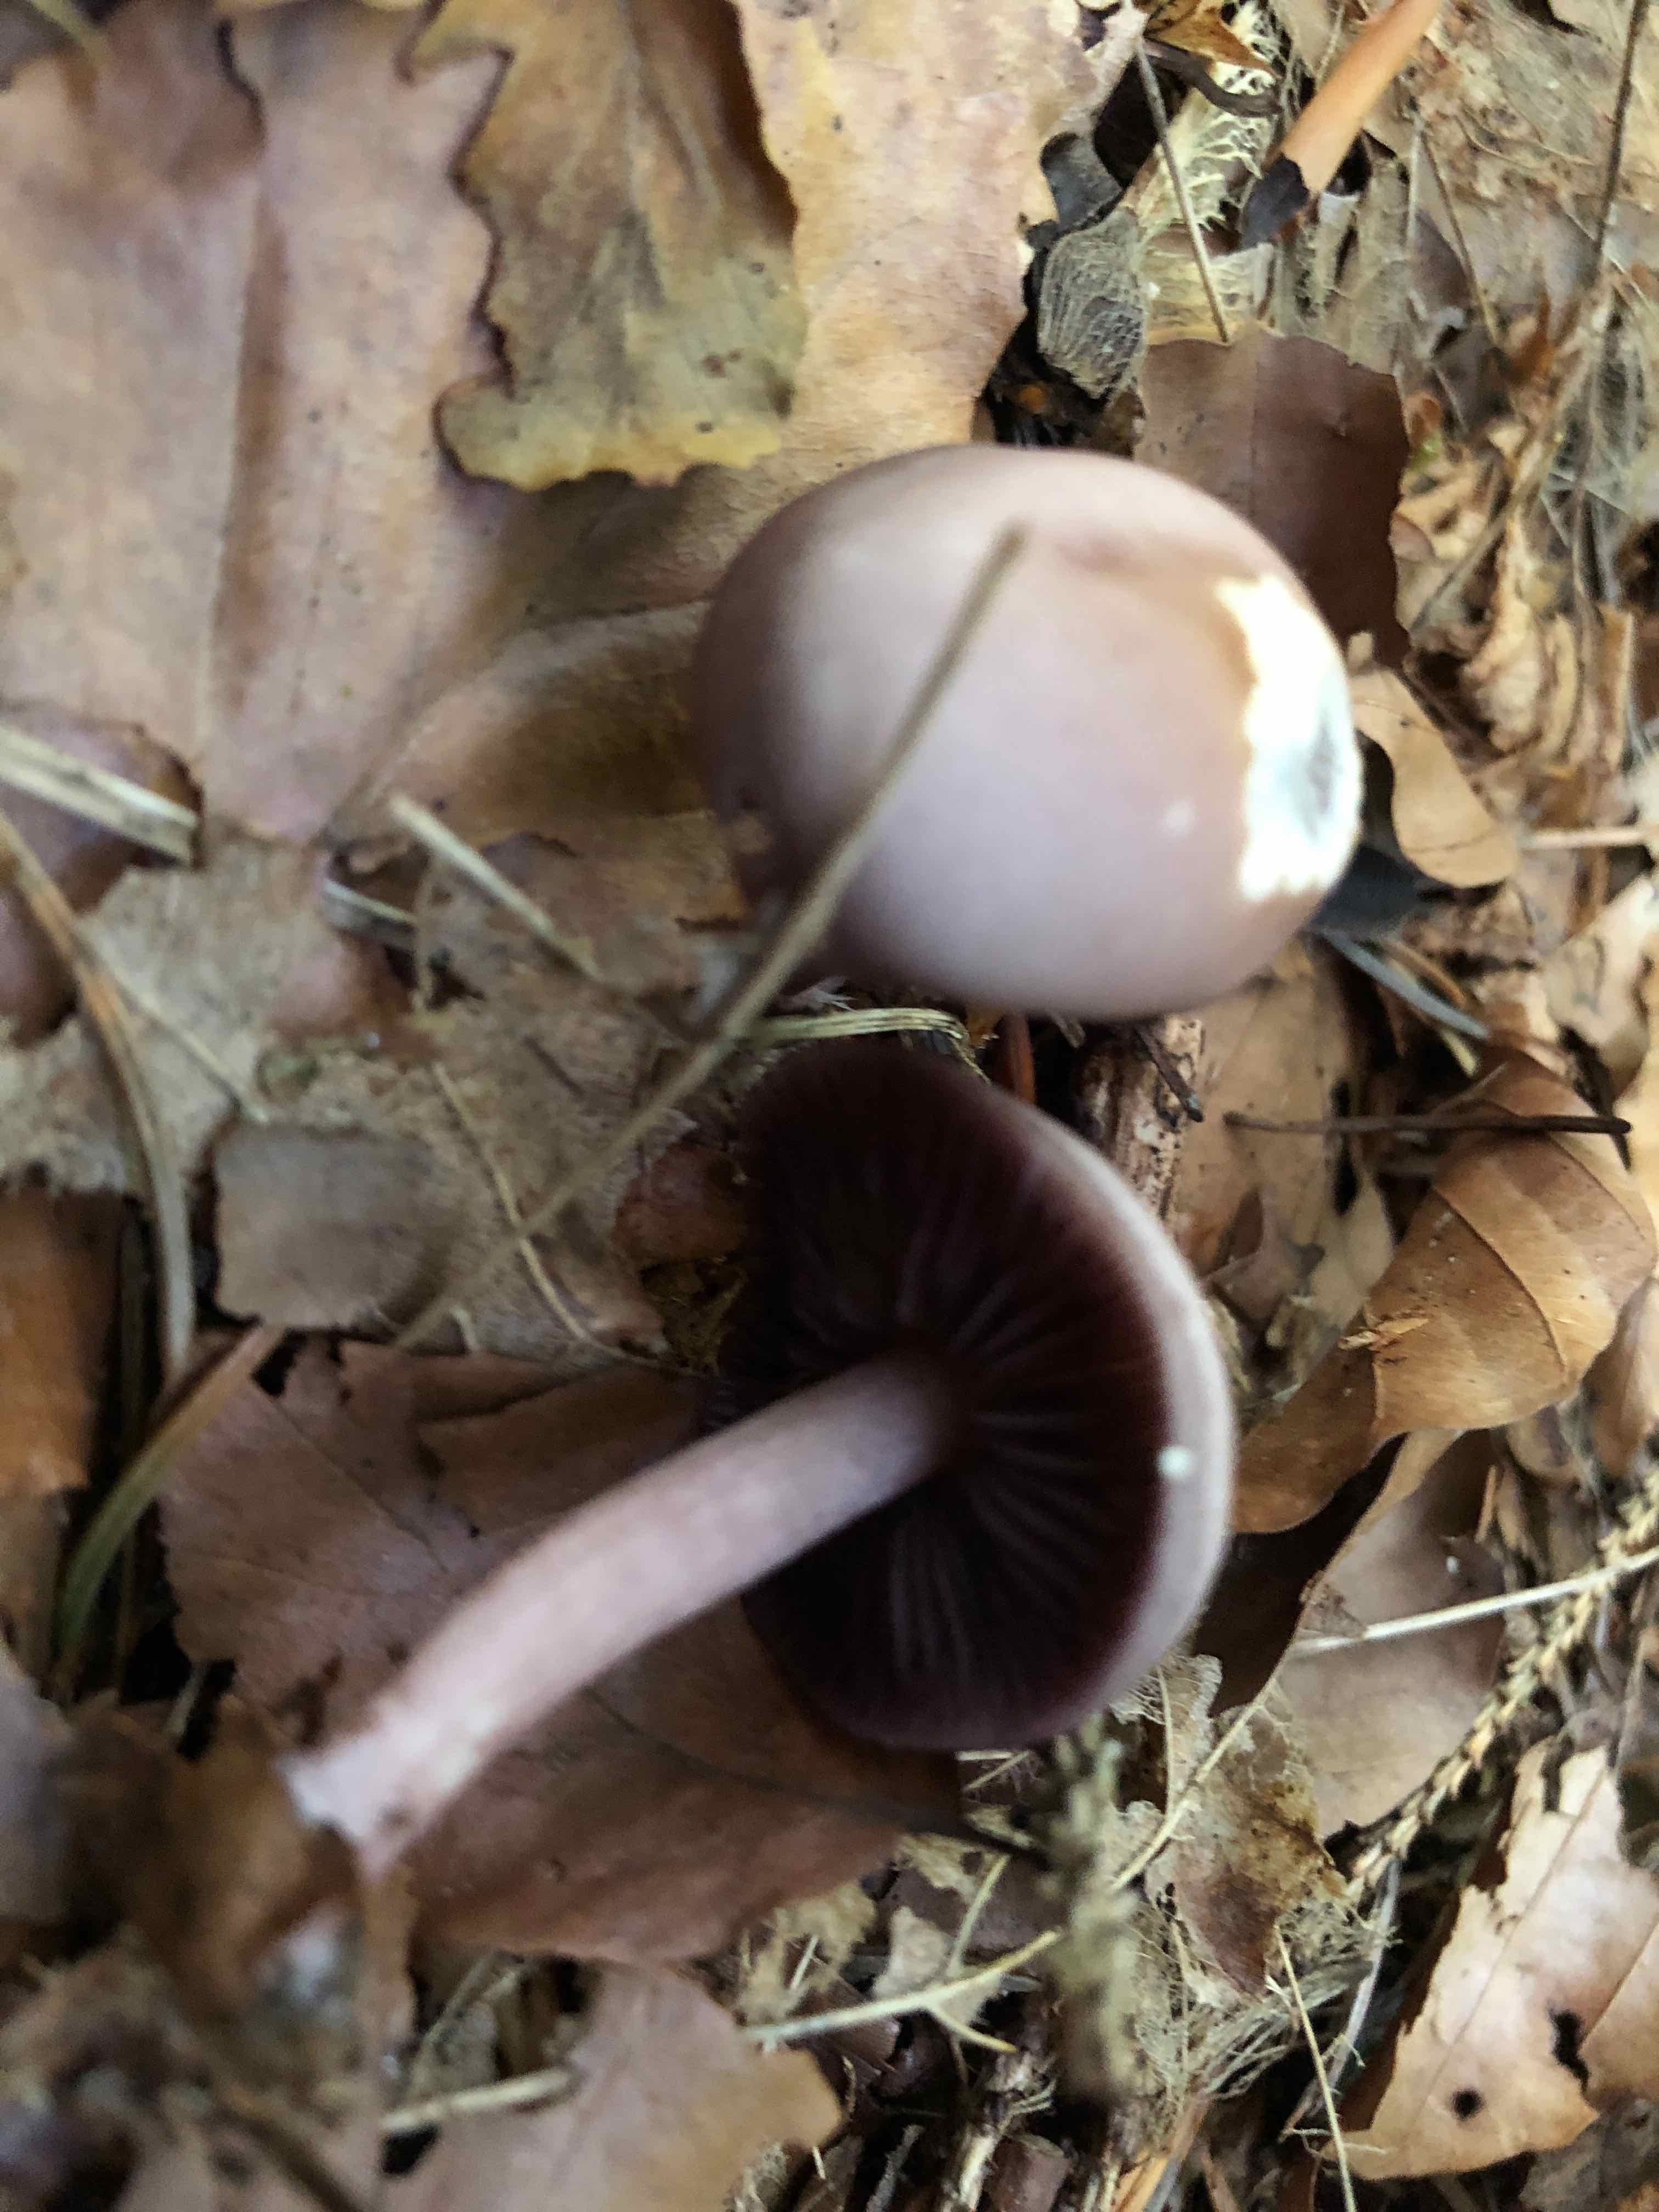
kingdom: Fungi
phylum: Basidiomycota
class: Agaricomycetes
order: Agaricales
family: Mycenaceae
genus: Mycena
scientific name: Mycena pelianthina
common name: mørkbladet huesvamp
